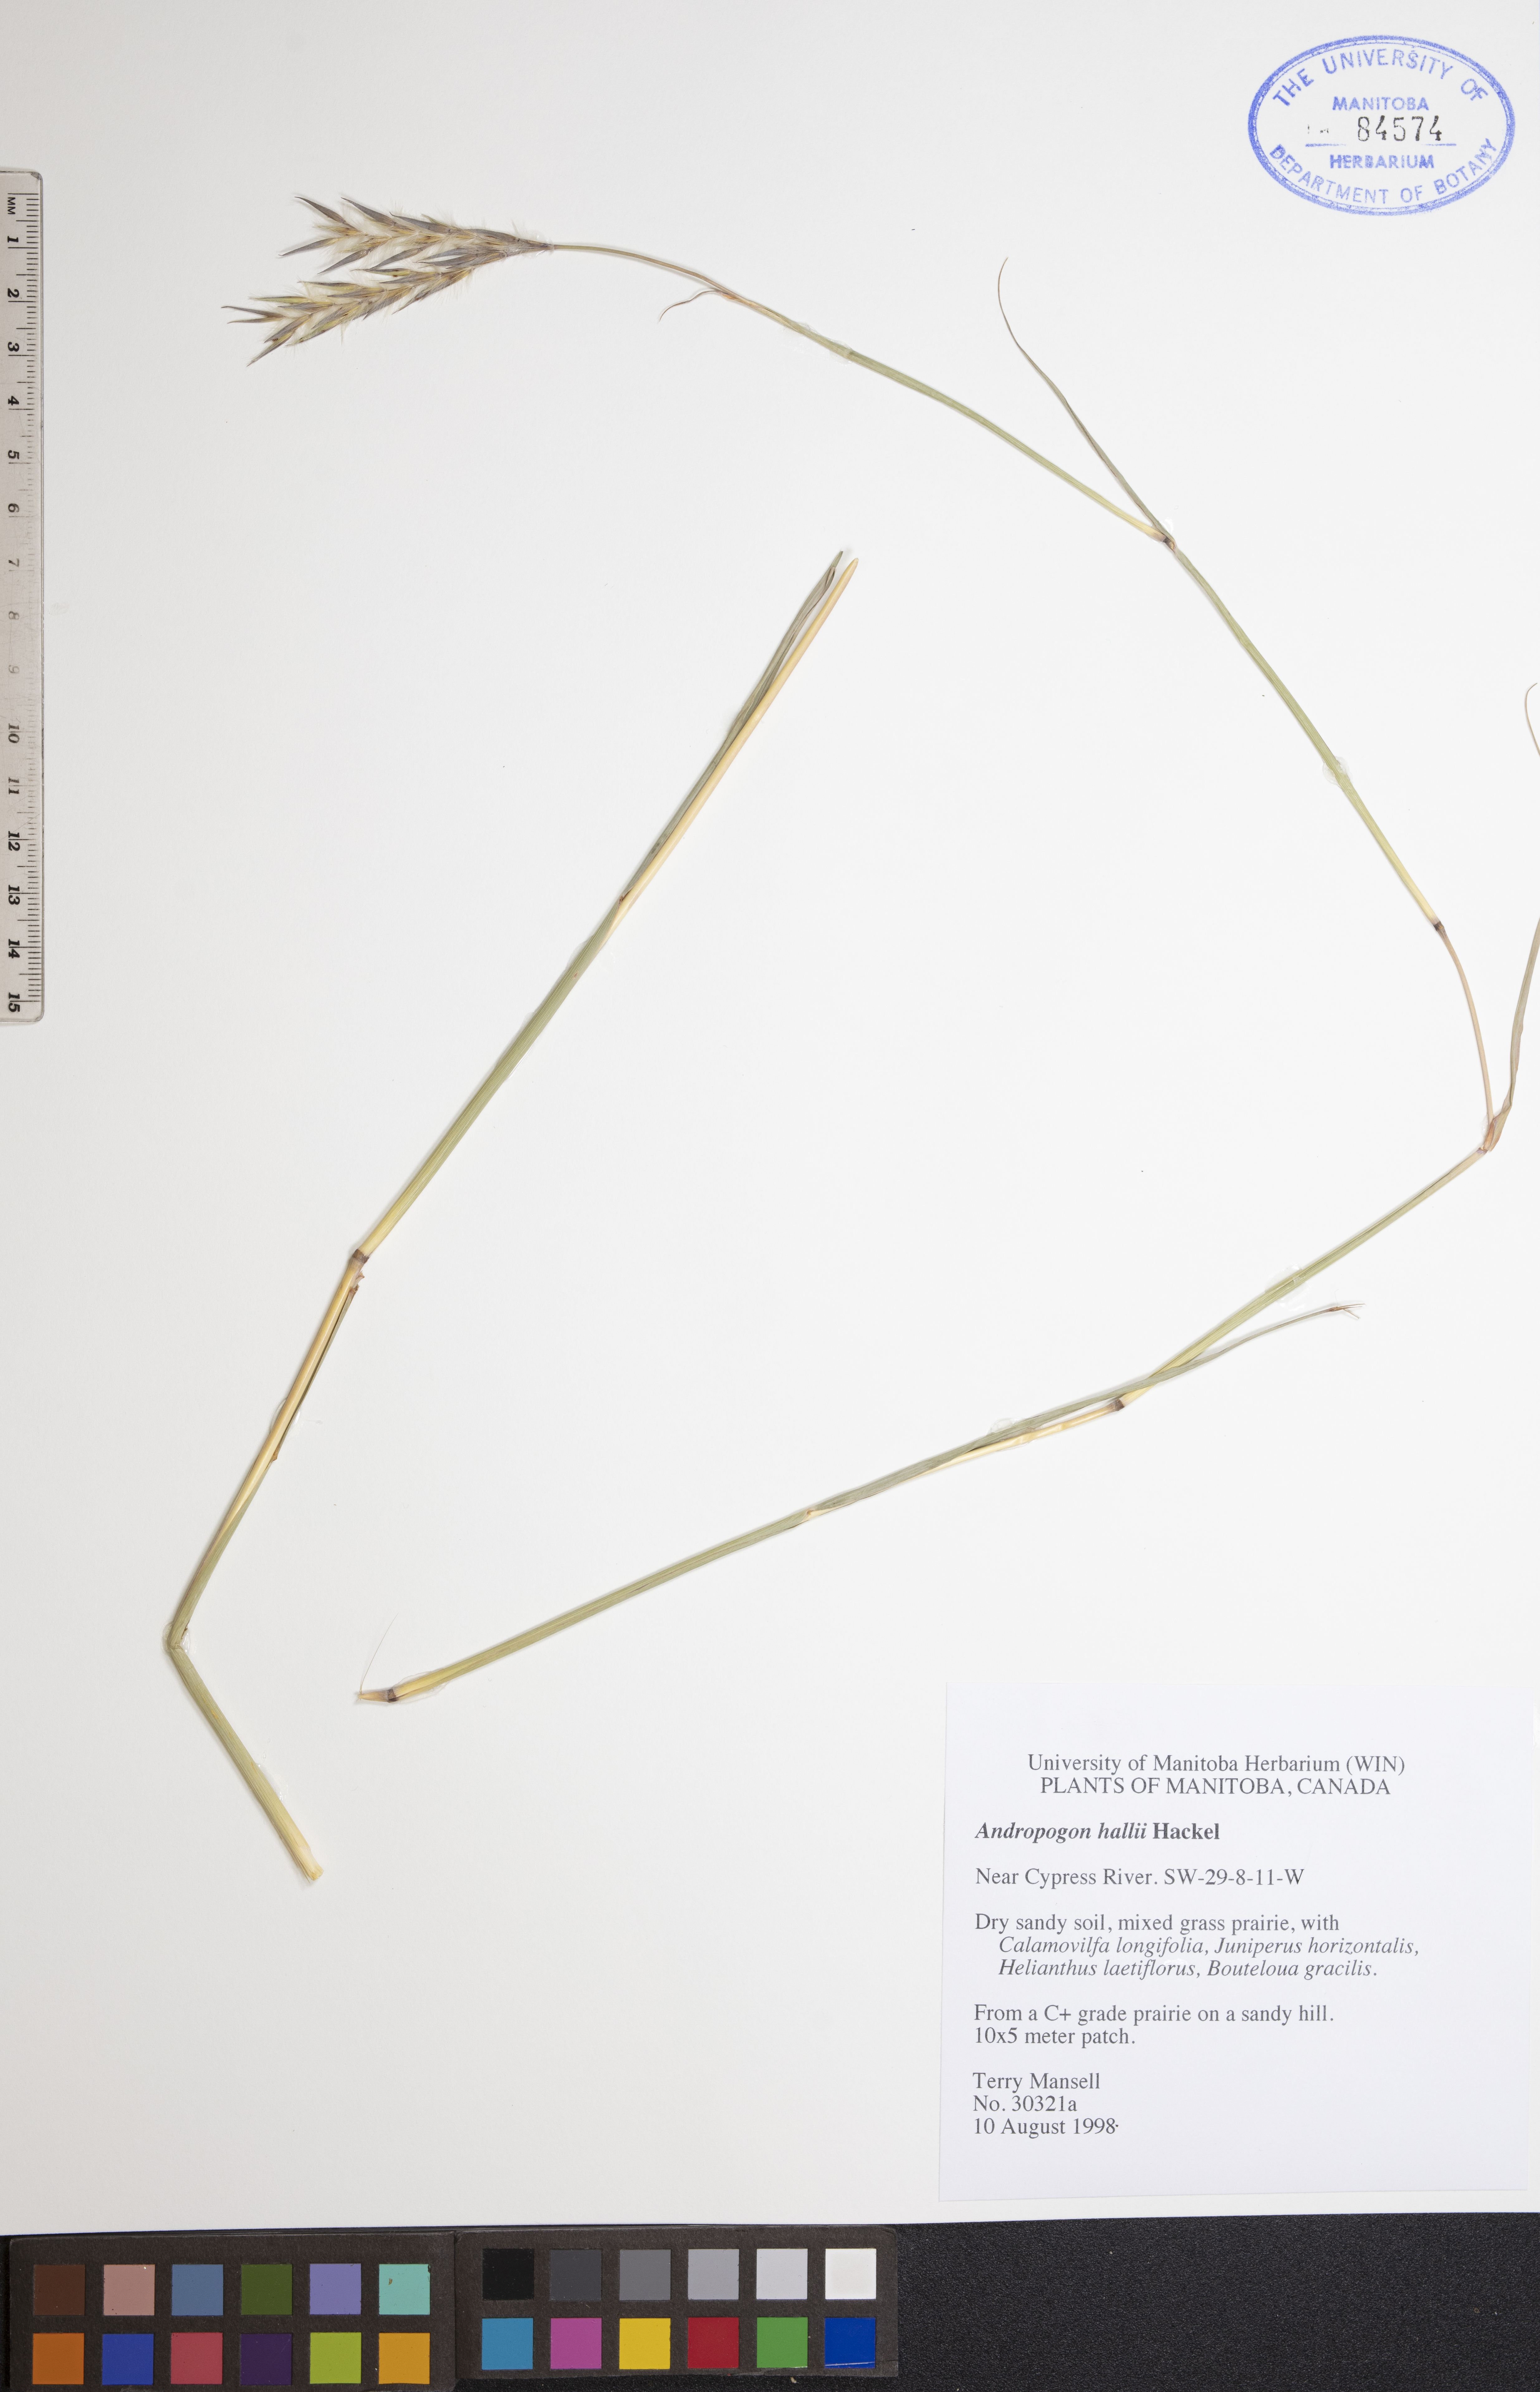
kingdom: Plantae
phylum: Tracheophyta
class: Liliopsida
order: Poales
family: Poaceae
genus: Andropogon
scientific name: Andropogon hallii
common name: Sand bluestem
